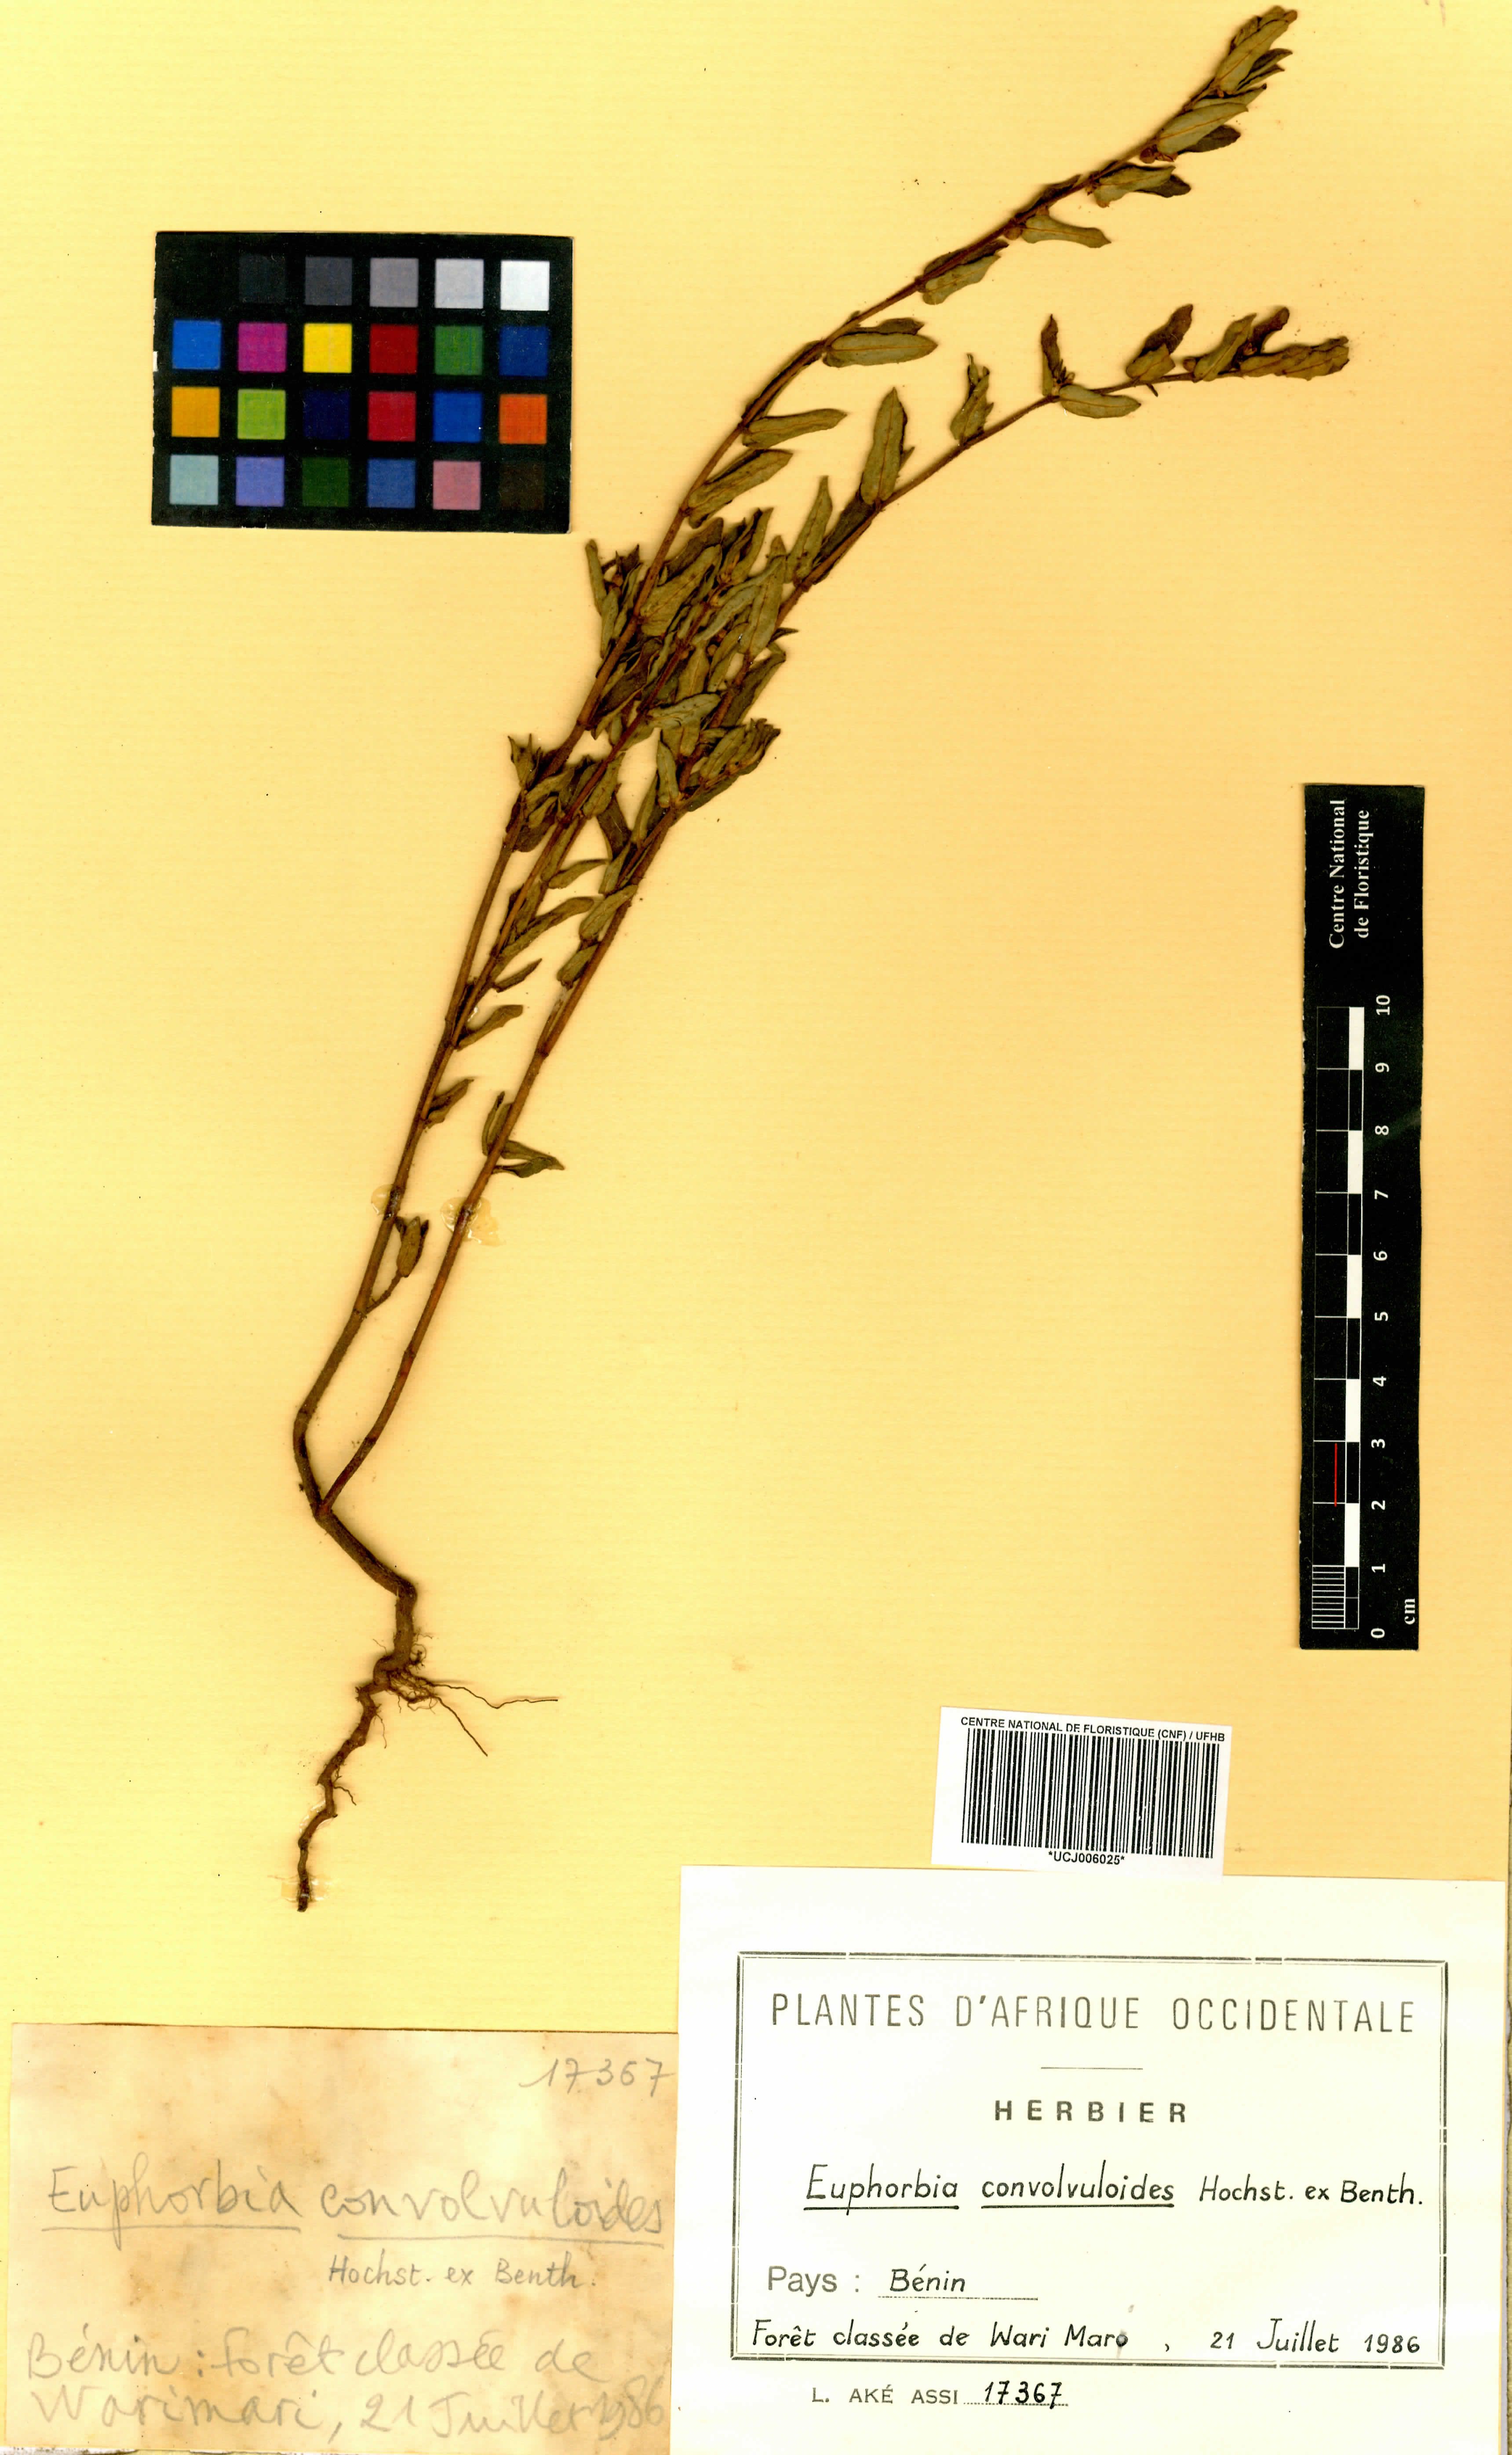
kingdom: Plantae
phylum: Tracheophyta
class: Magnoliopsida
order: Malpighiales
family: Euphorbiaceae
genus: Euphorbia
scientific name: Euphorbia convolvuloides
